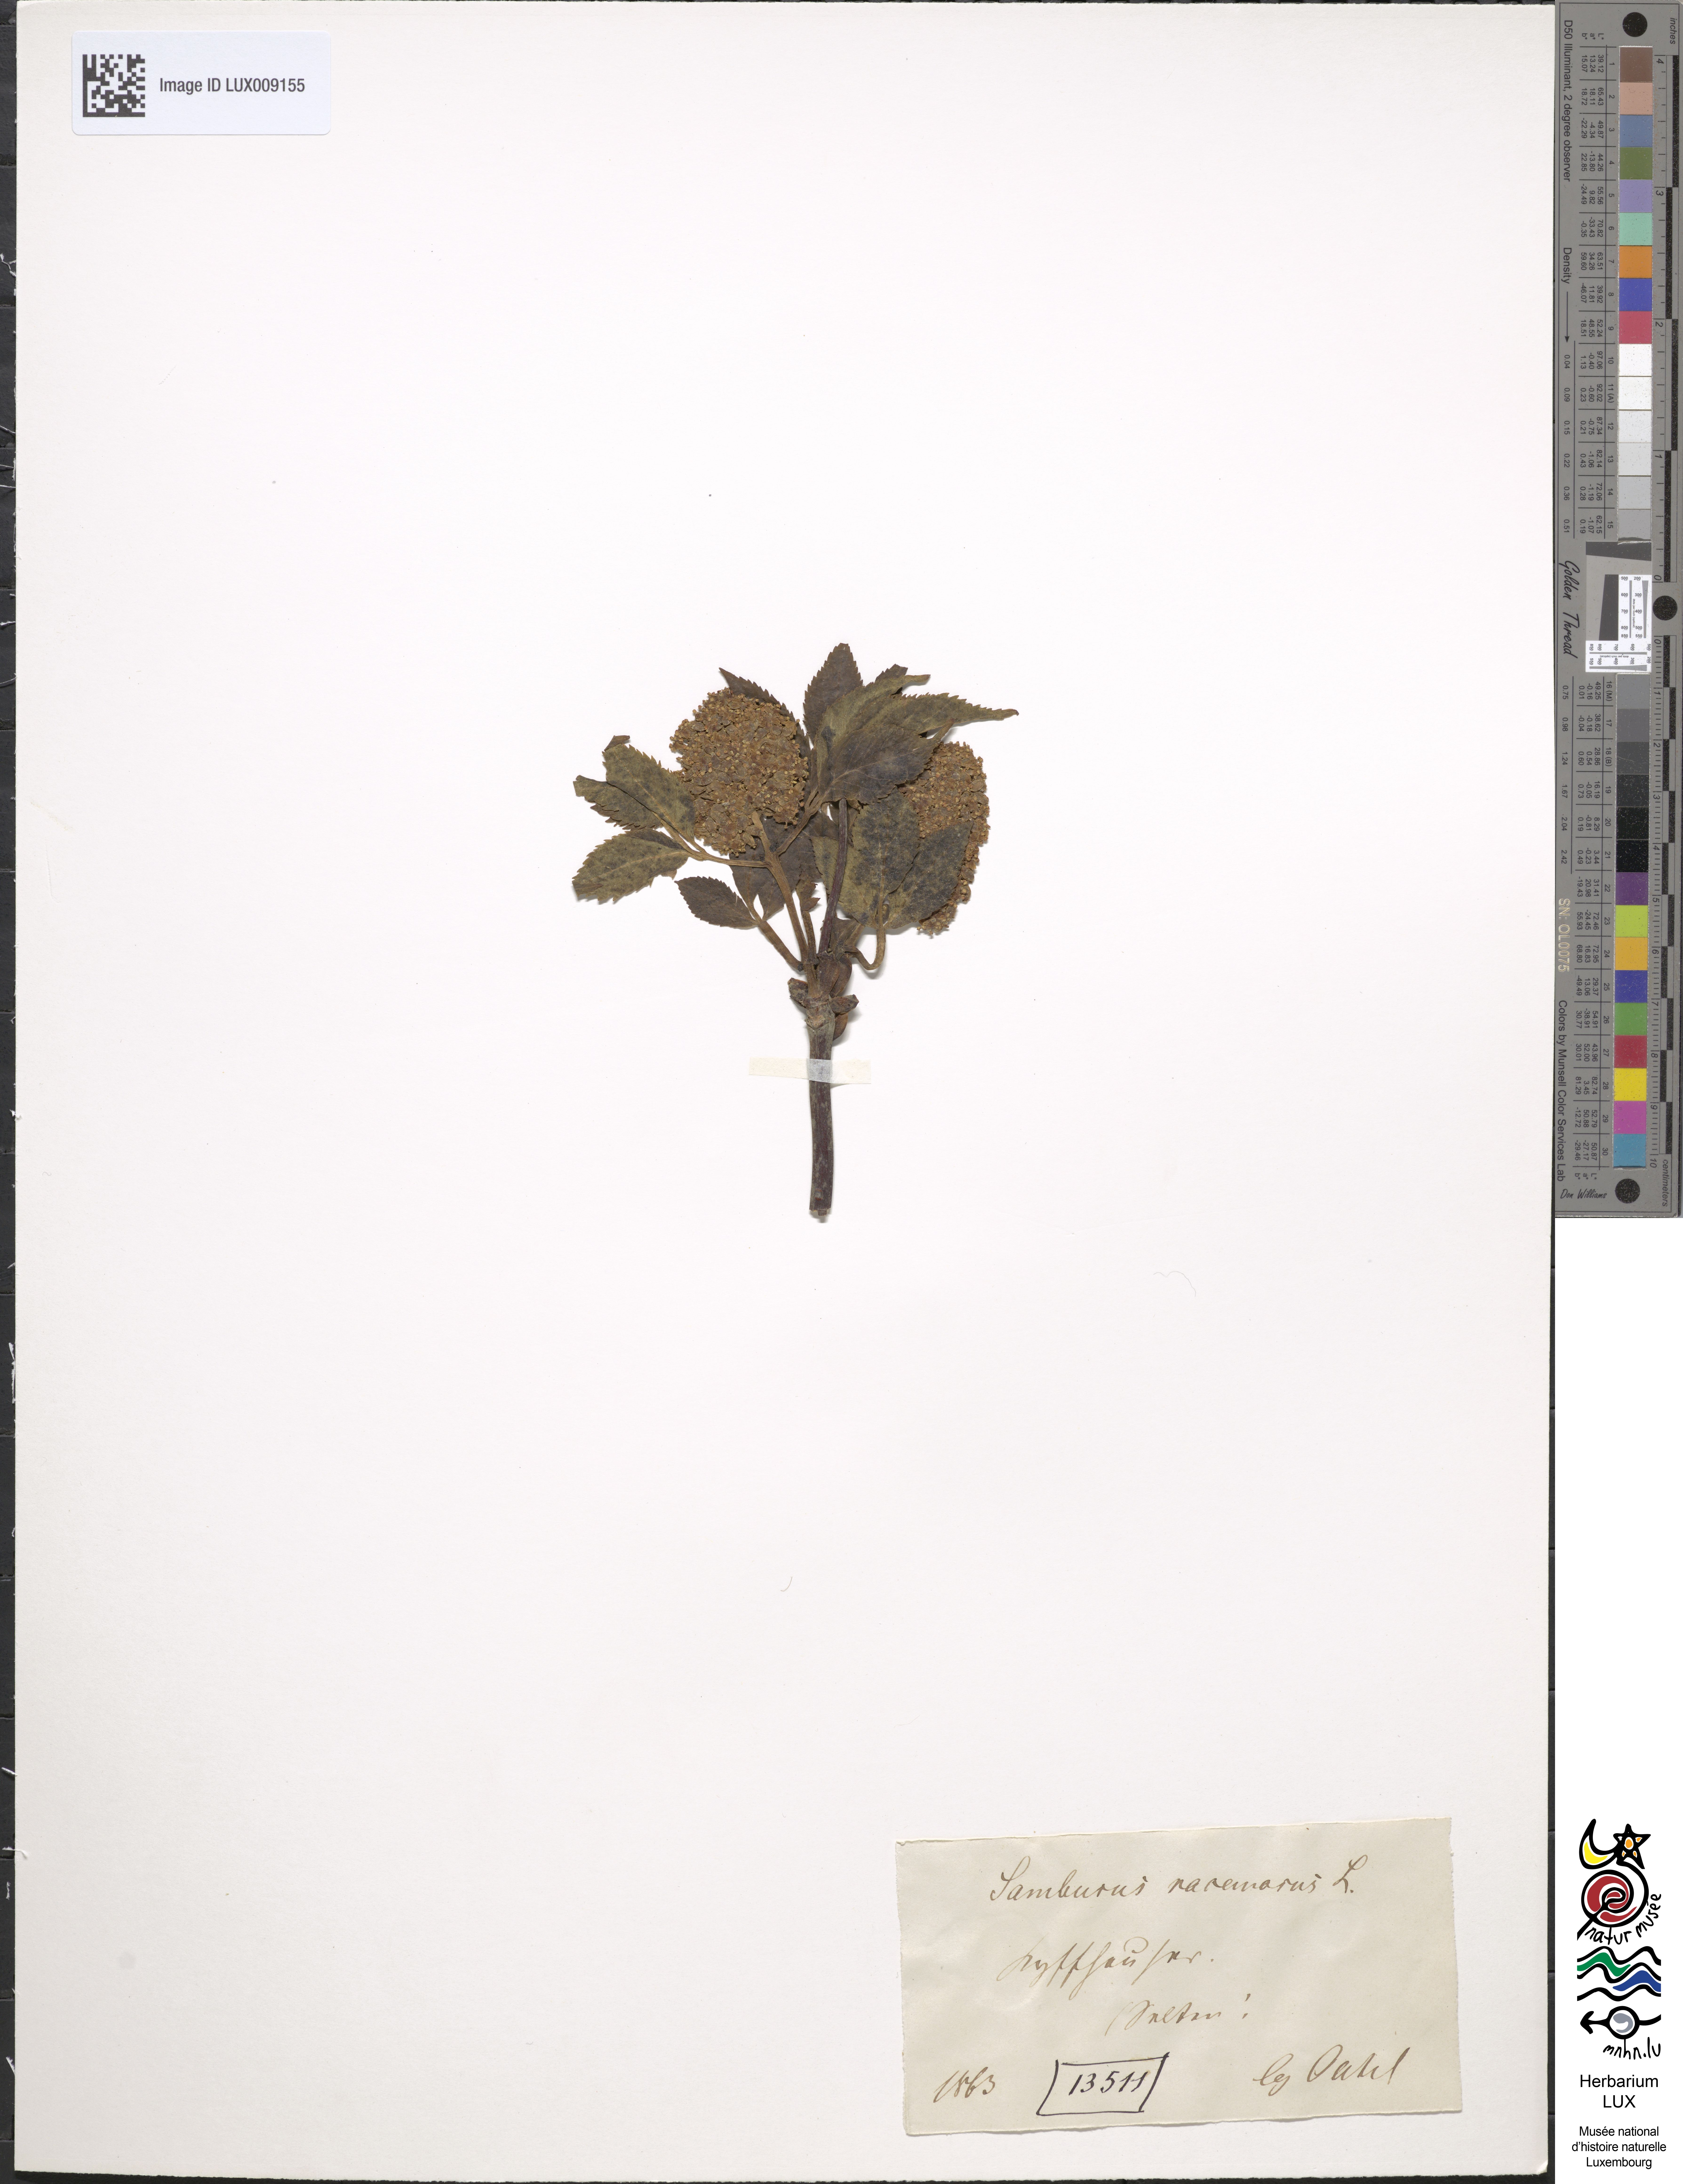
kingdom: Plantae
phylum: Tracheophyta
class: Magnoliopsida
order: Dipsacales
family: Viburnaceae
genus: Sambucus
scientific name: Sambucus racemosa
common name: Red-berried elder
